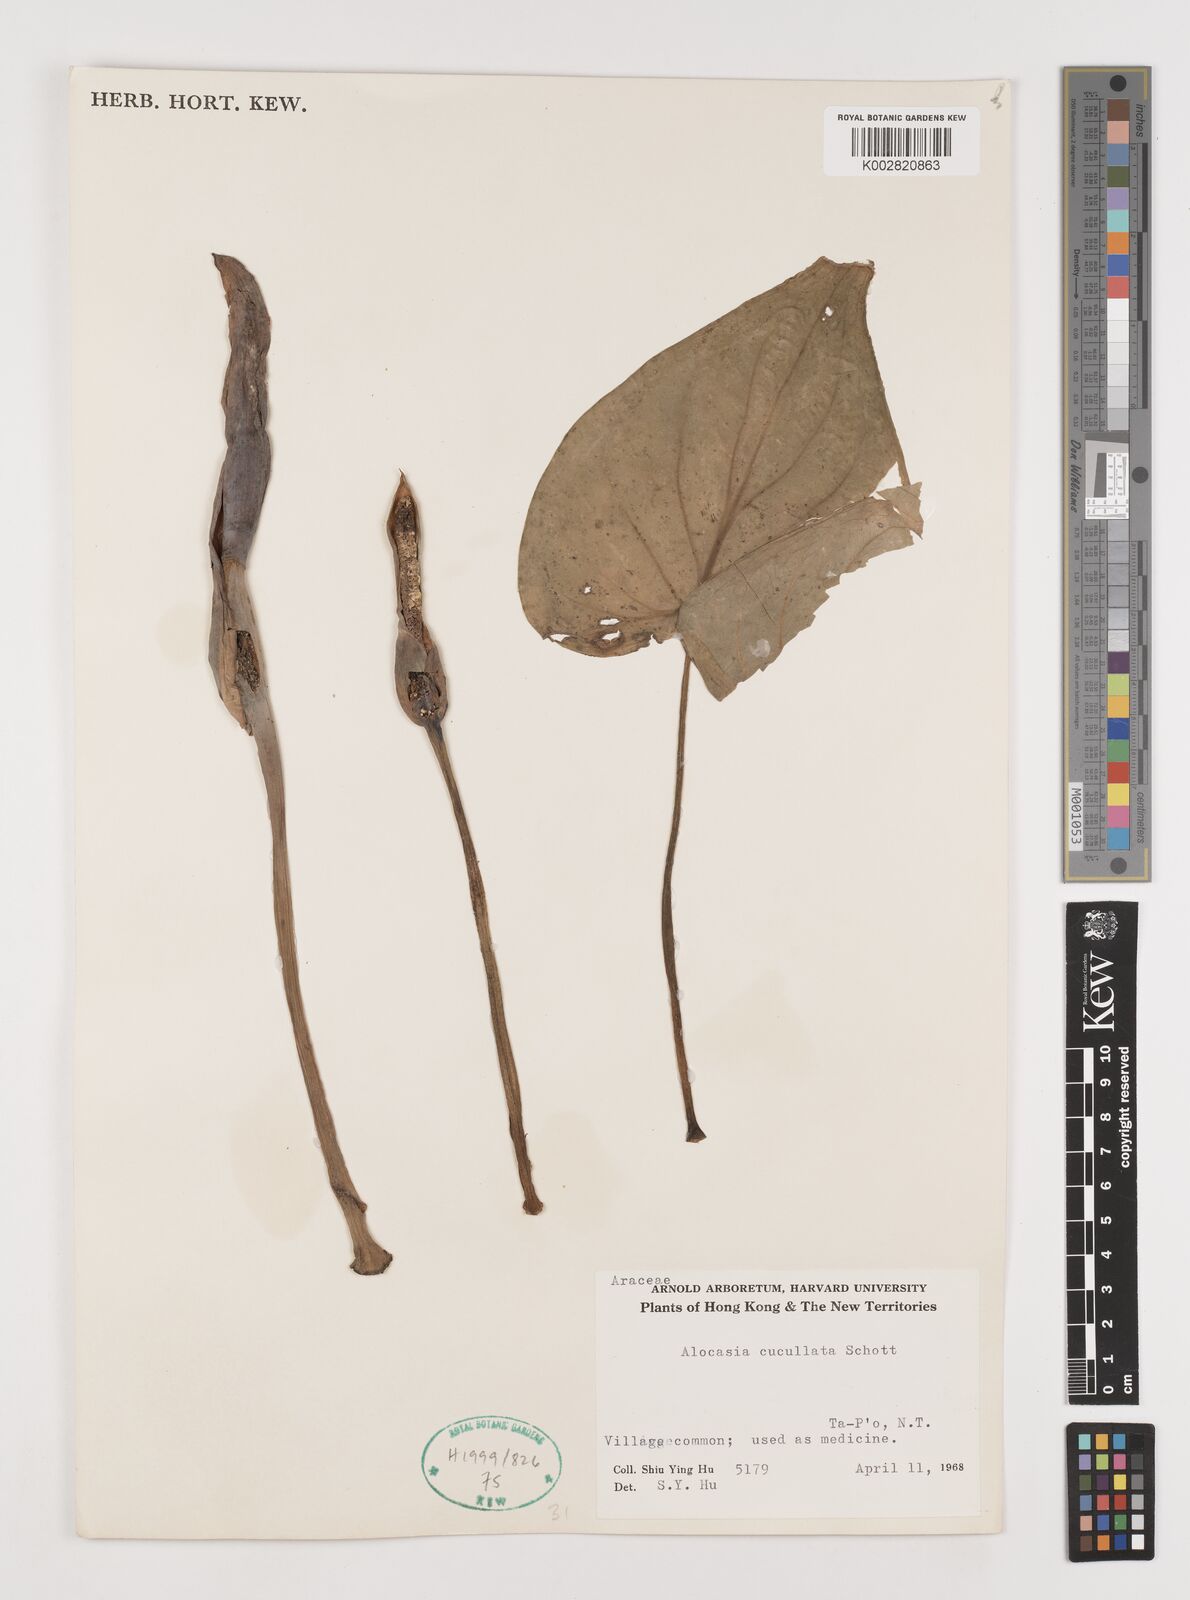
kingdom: Plantae
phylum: Tracheophyta
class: Liliopsida
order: Alismatales
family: Araceae
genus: Alocasia
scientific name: Alocasia cucullata
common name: Buddha's hand
